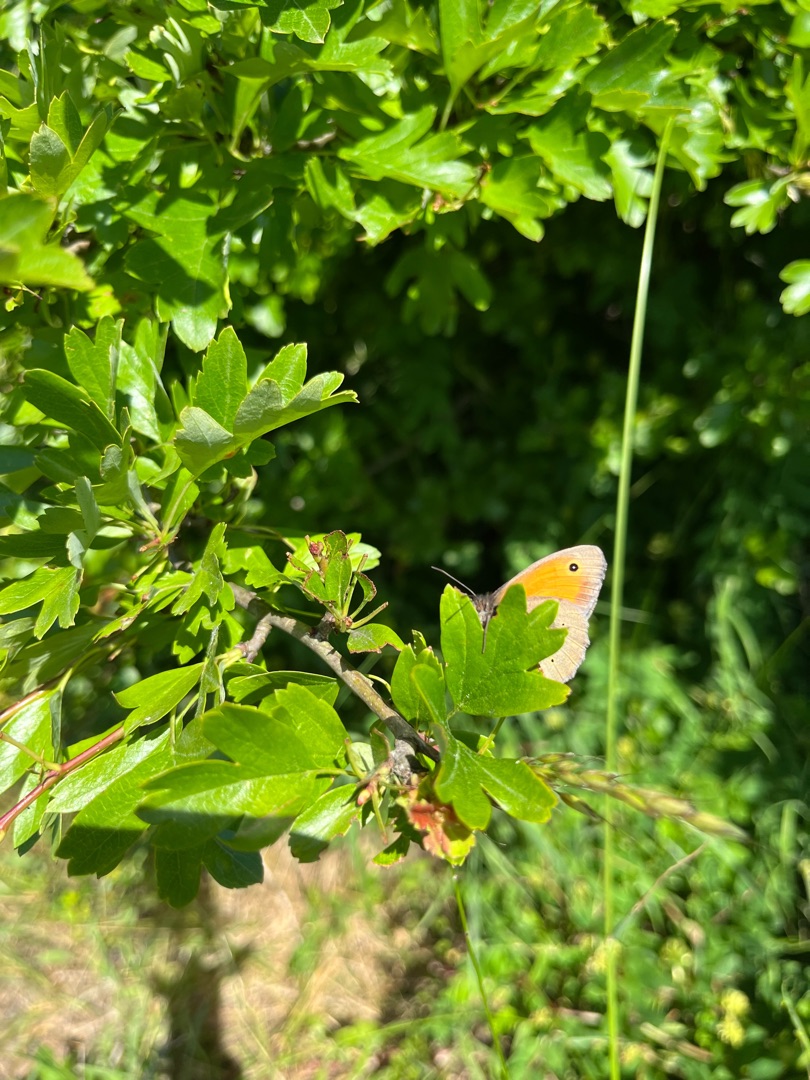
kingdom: Animalia
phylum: Arthropoda
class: Insecta
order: Lepidoptera
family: Nymphalidae
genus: Coenonympha
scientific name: Coenonympha pamphilus
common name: Okkergul randøje
